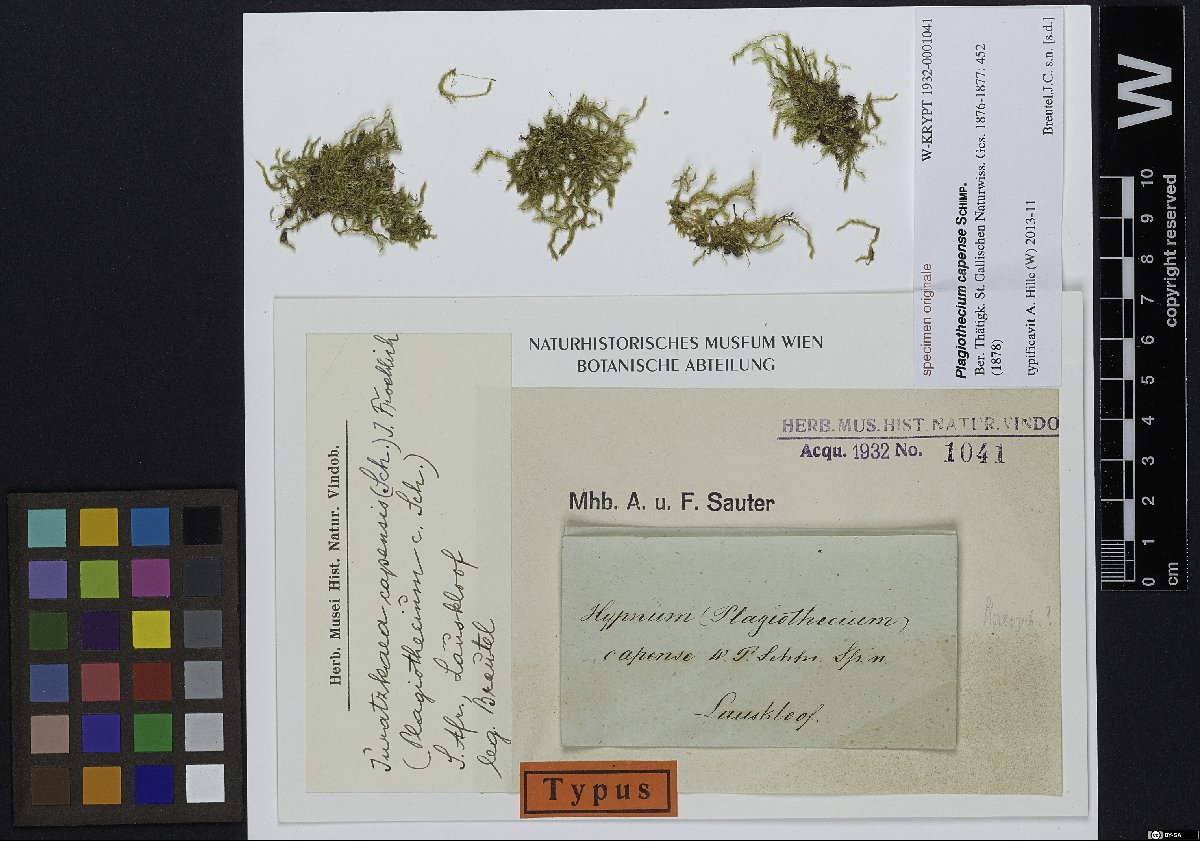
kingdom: Plantae
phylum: Bryophyta
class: Bryopsida
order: Hypnales
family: Plagiotheciaceae
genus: Plagiothecium
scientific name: Plagiothecium
